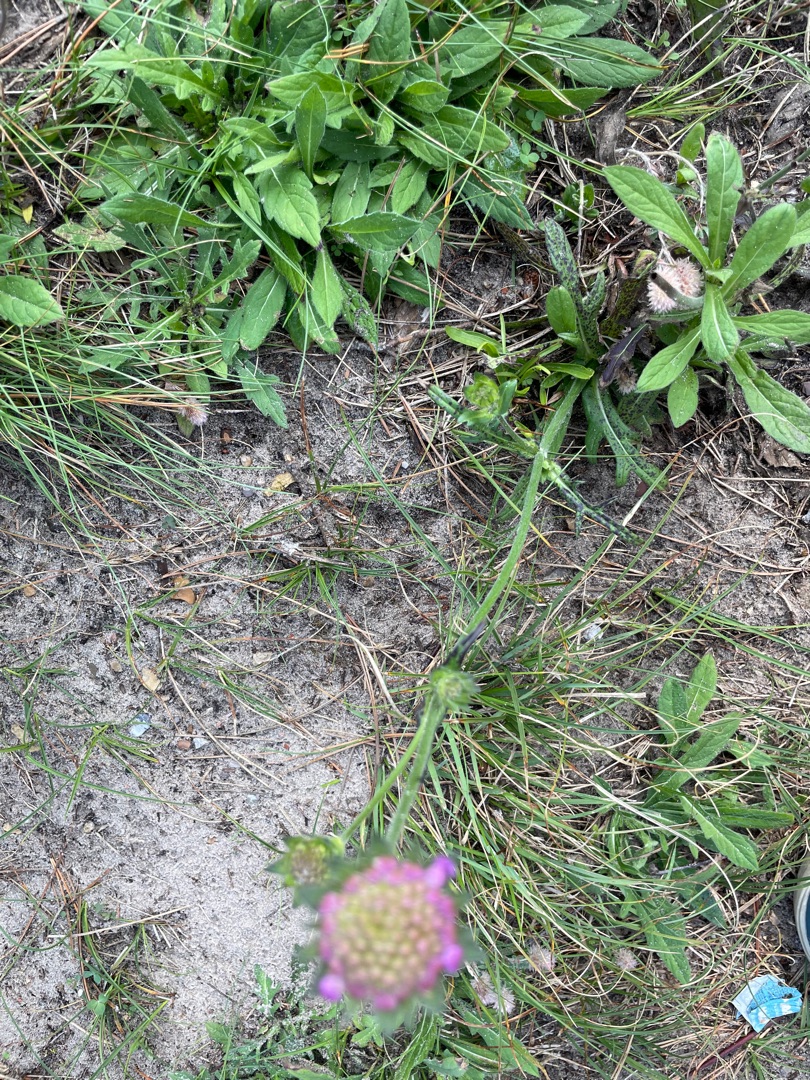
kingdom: Plantae
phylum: Tracheophyta
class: Magnoliopsida
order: Dipsacales
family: Caprifoliaceae
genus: Knautia
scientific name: Knautia arvensis
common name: Blåhat
